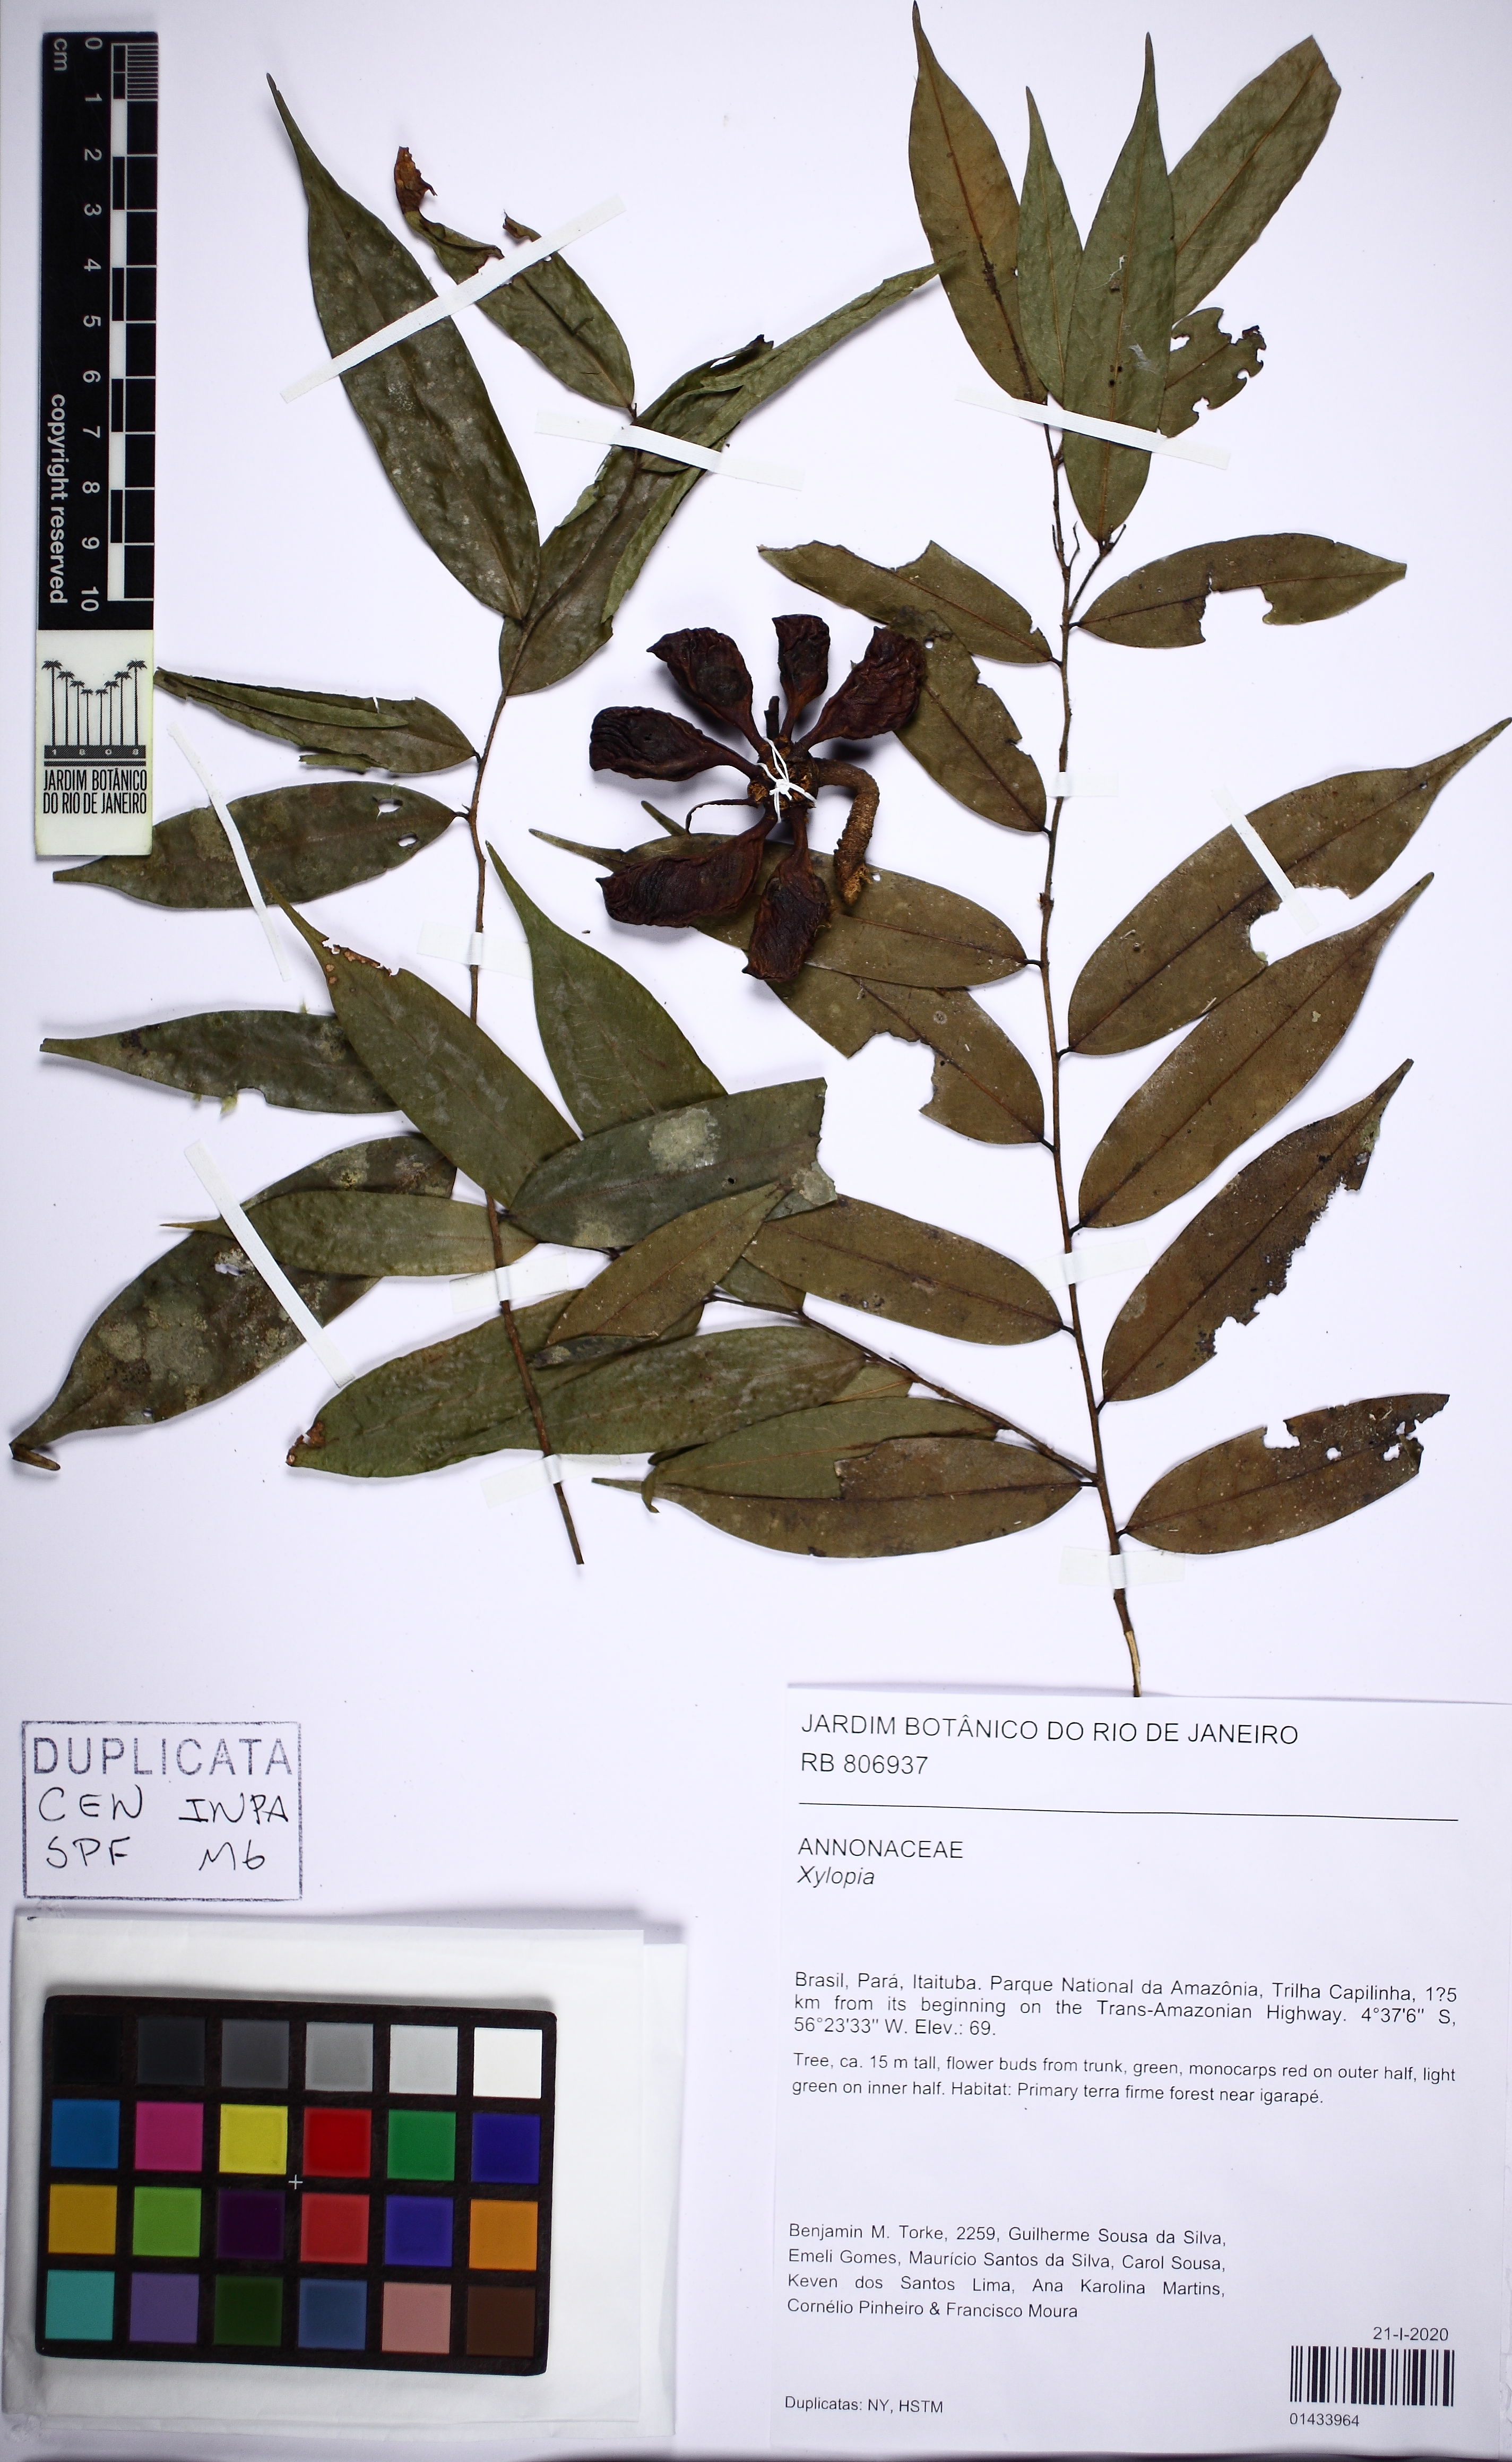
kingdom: Plantae
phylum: Tracheophyta
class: Magnoliopsida
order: Magnoliales
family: Annonaceae
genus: Xylopia
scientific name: Xylopia
